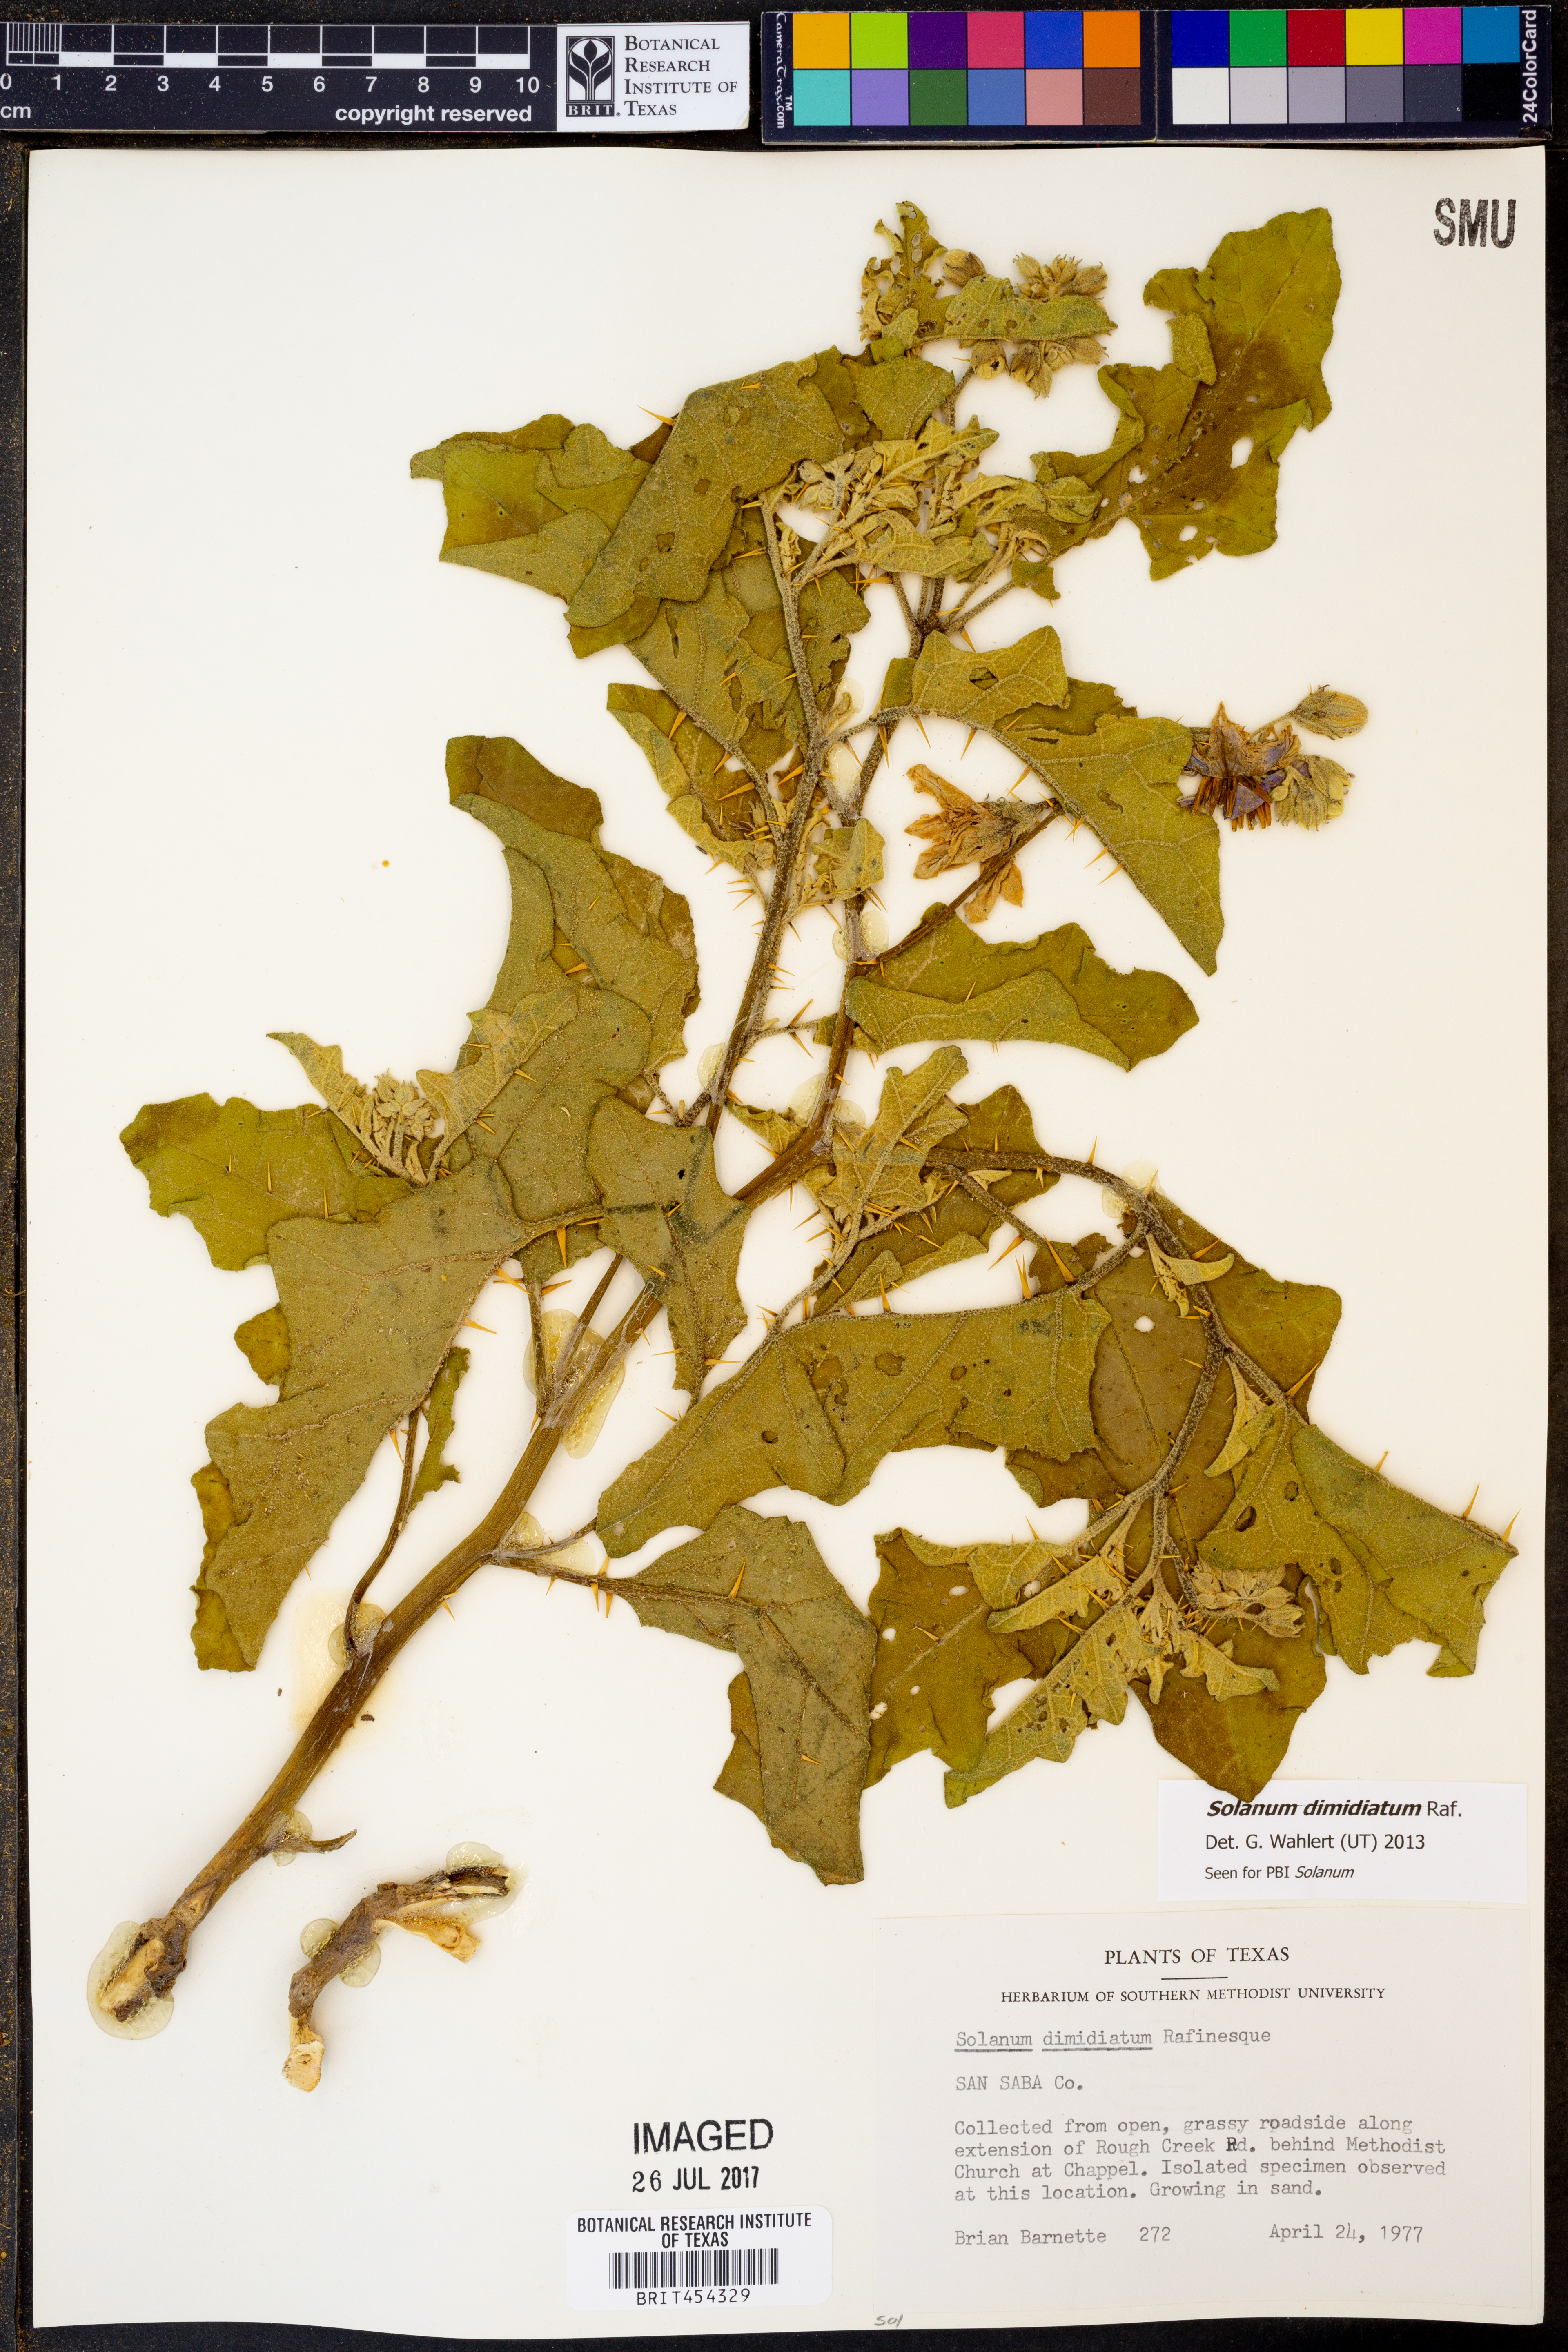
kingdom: Plantae
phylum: Tracheophyta
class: Magnoliopsida
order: Solanales
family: Solanaceae
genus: Solanum
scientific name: Solanum dimidiatum
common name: Carolina horse-nettle
